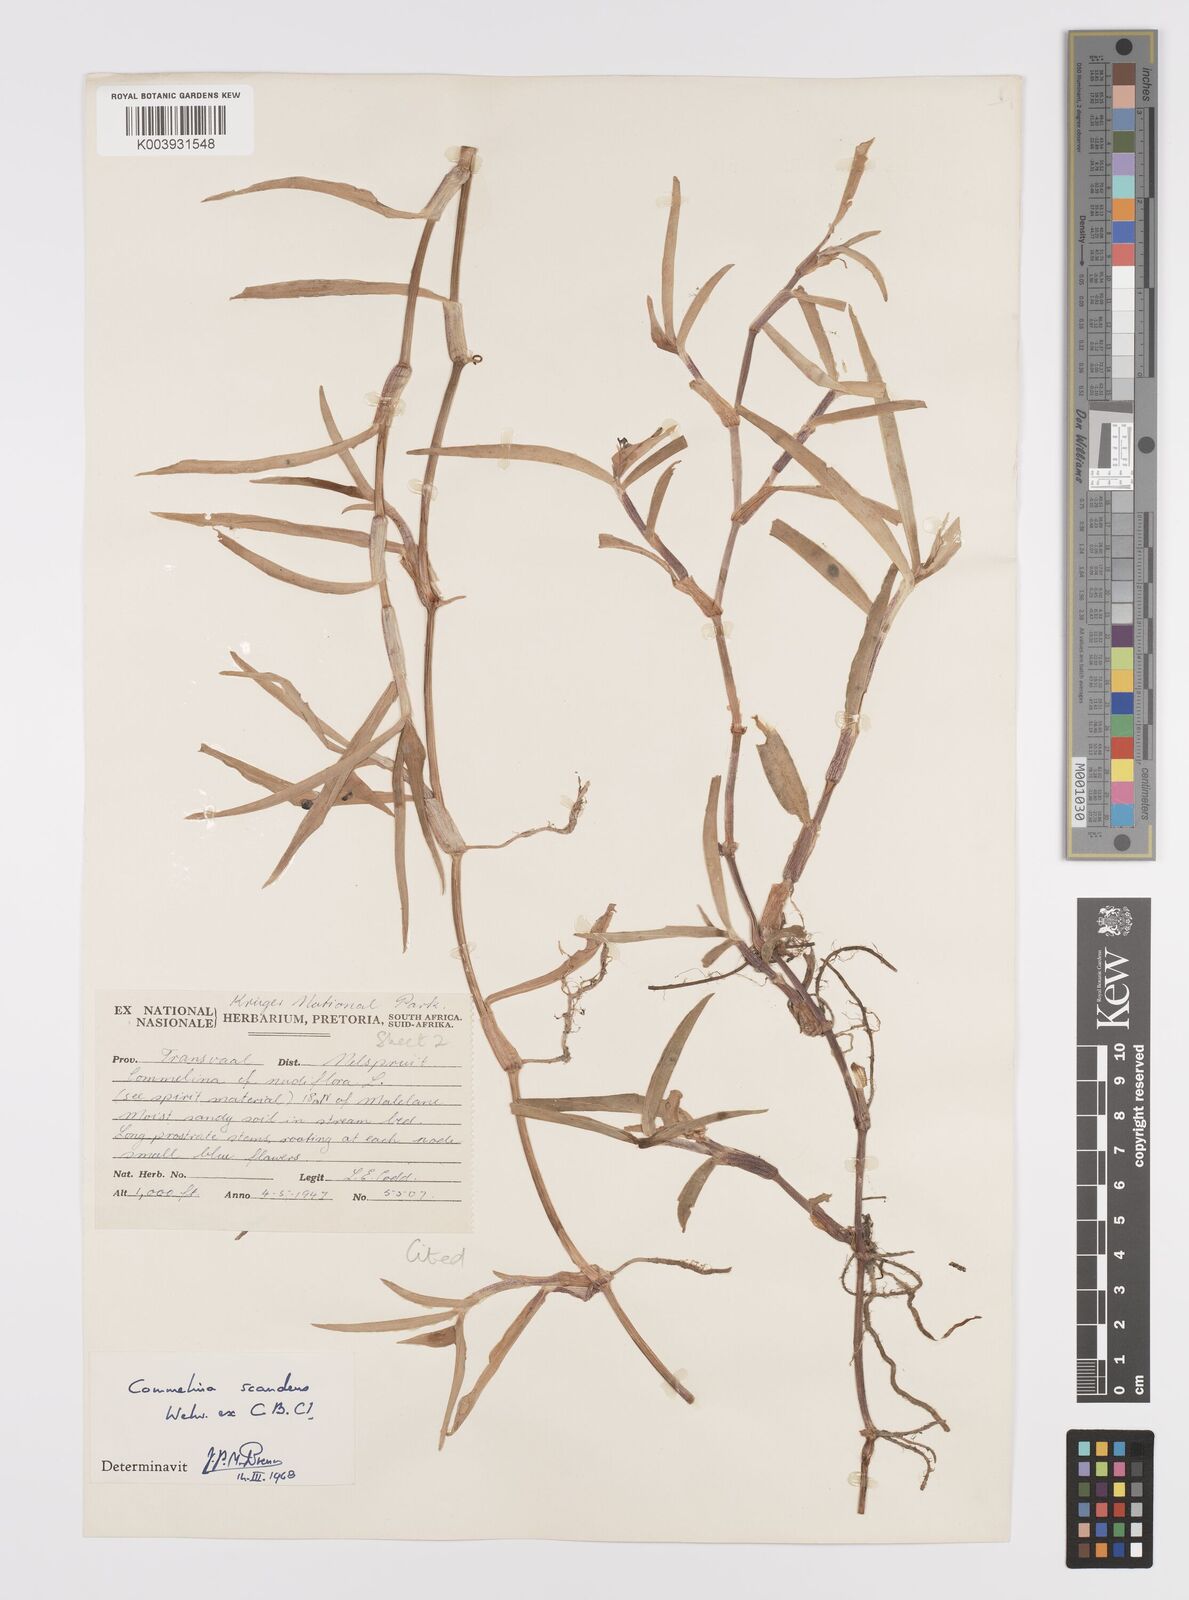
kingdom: Plantae
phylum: Tracheophyta
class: Liliopsida
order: Commelinales
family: Commelinaceae
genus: Commelina
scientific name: Commelina scandens
